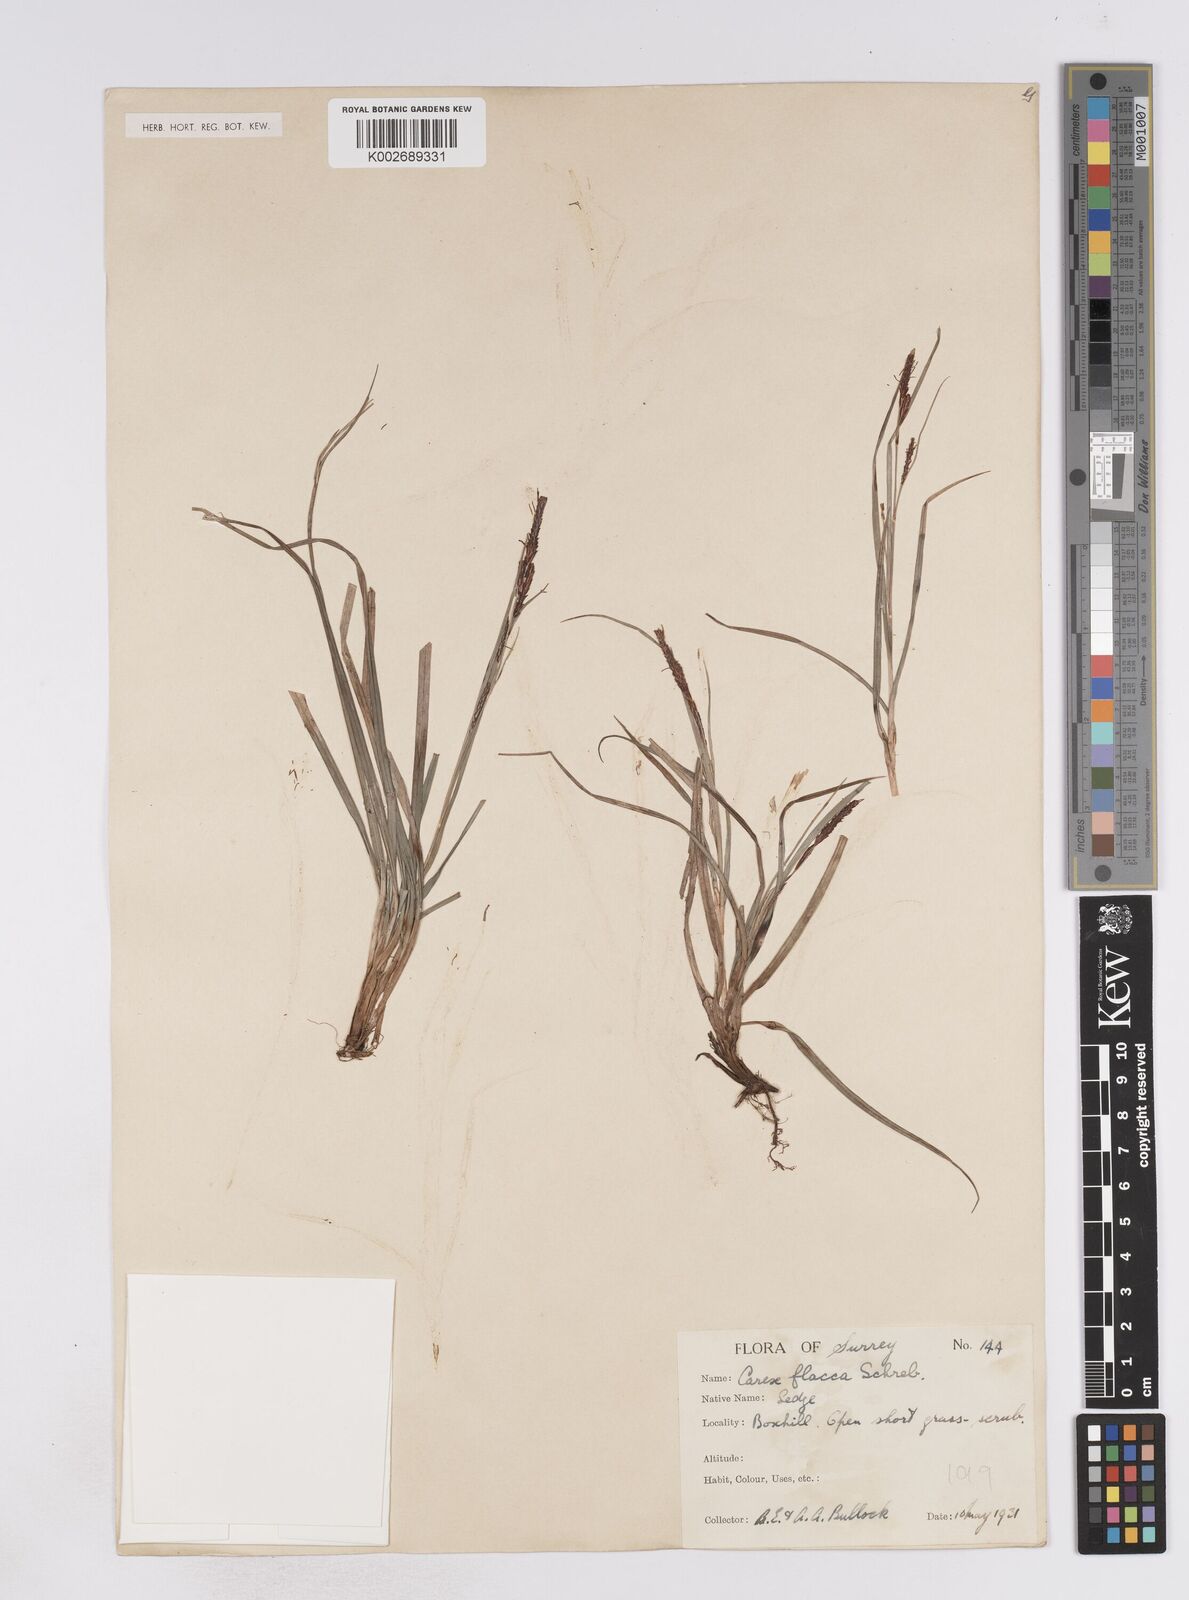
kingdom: Plantae
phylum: Tracheophyta
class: Liliopsida
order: Poales
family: Cyperaceae
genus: Carex
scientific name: Carex flacca
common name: Glaucous sedge
